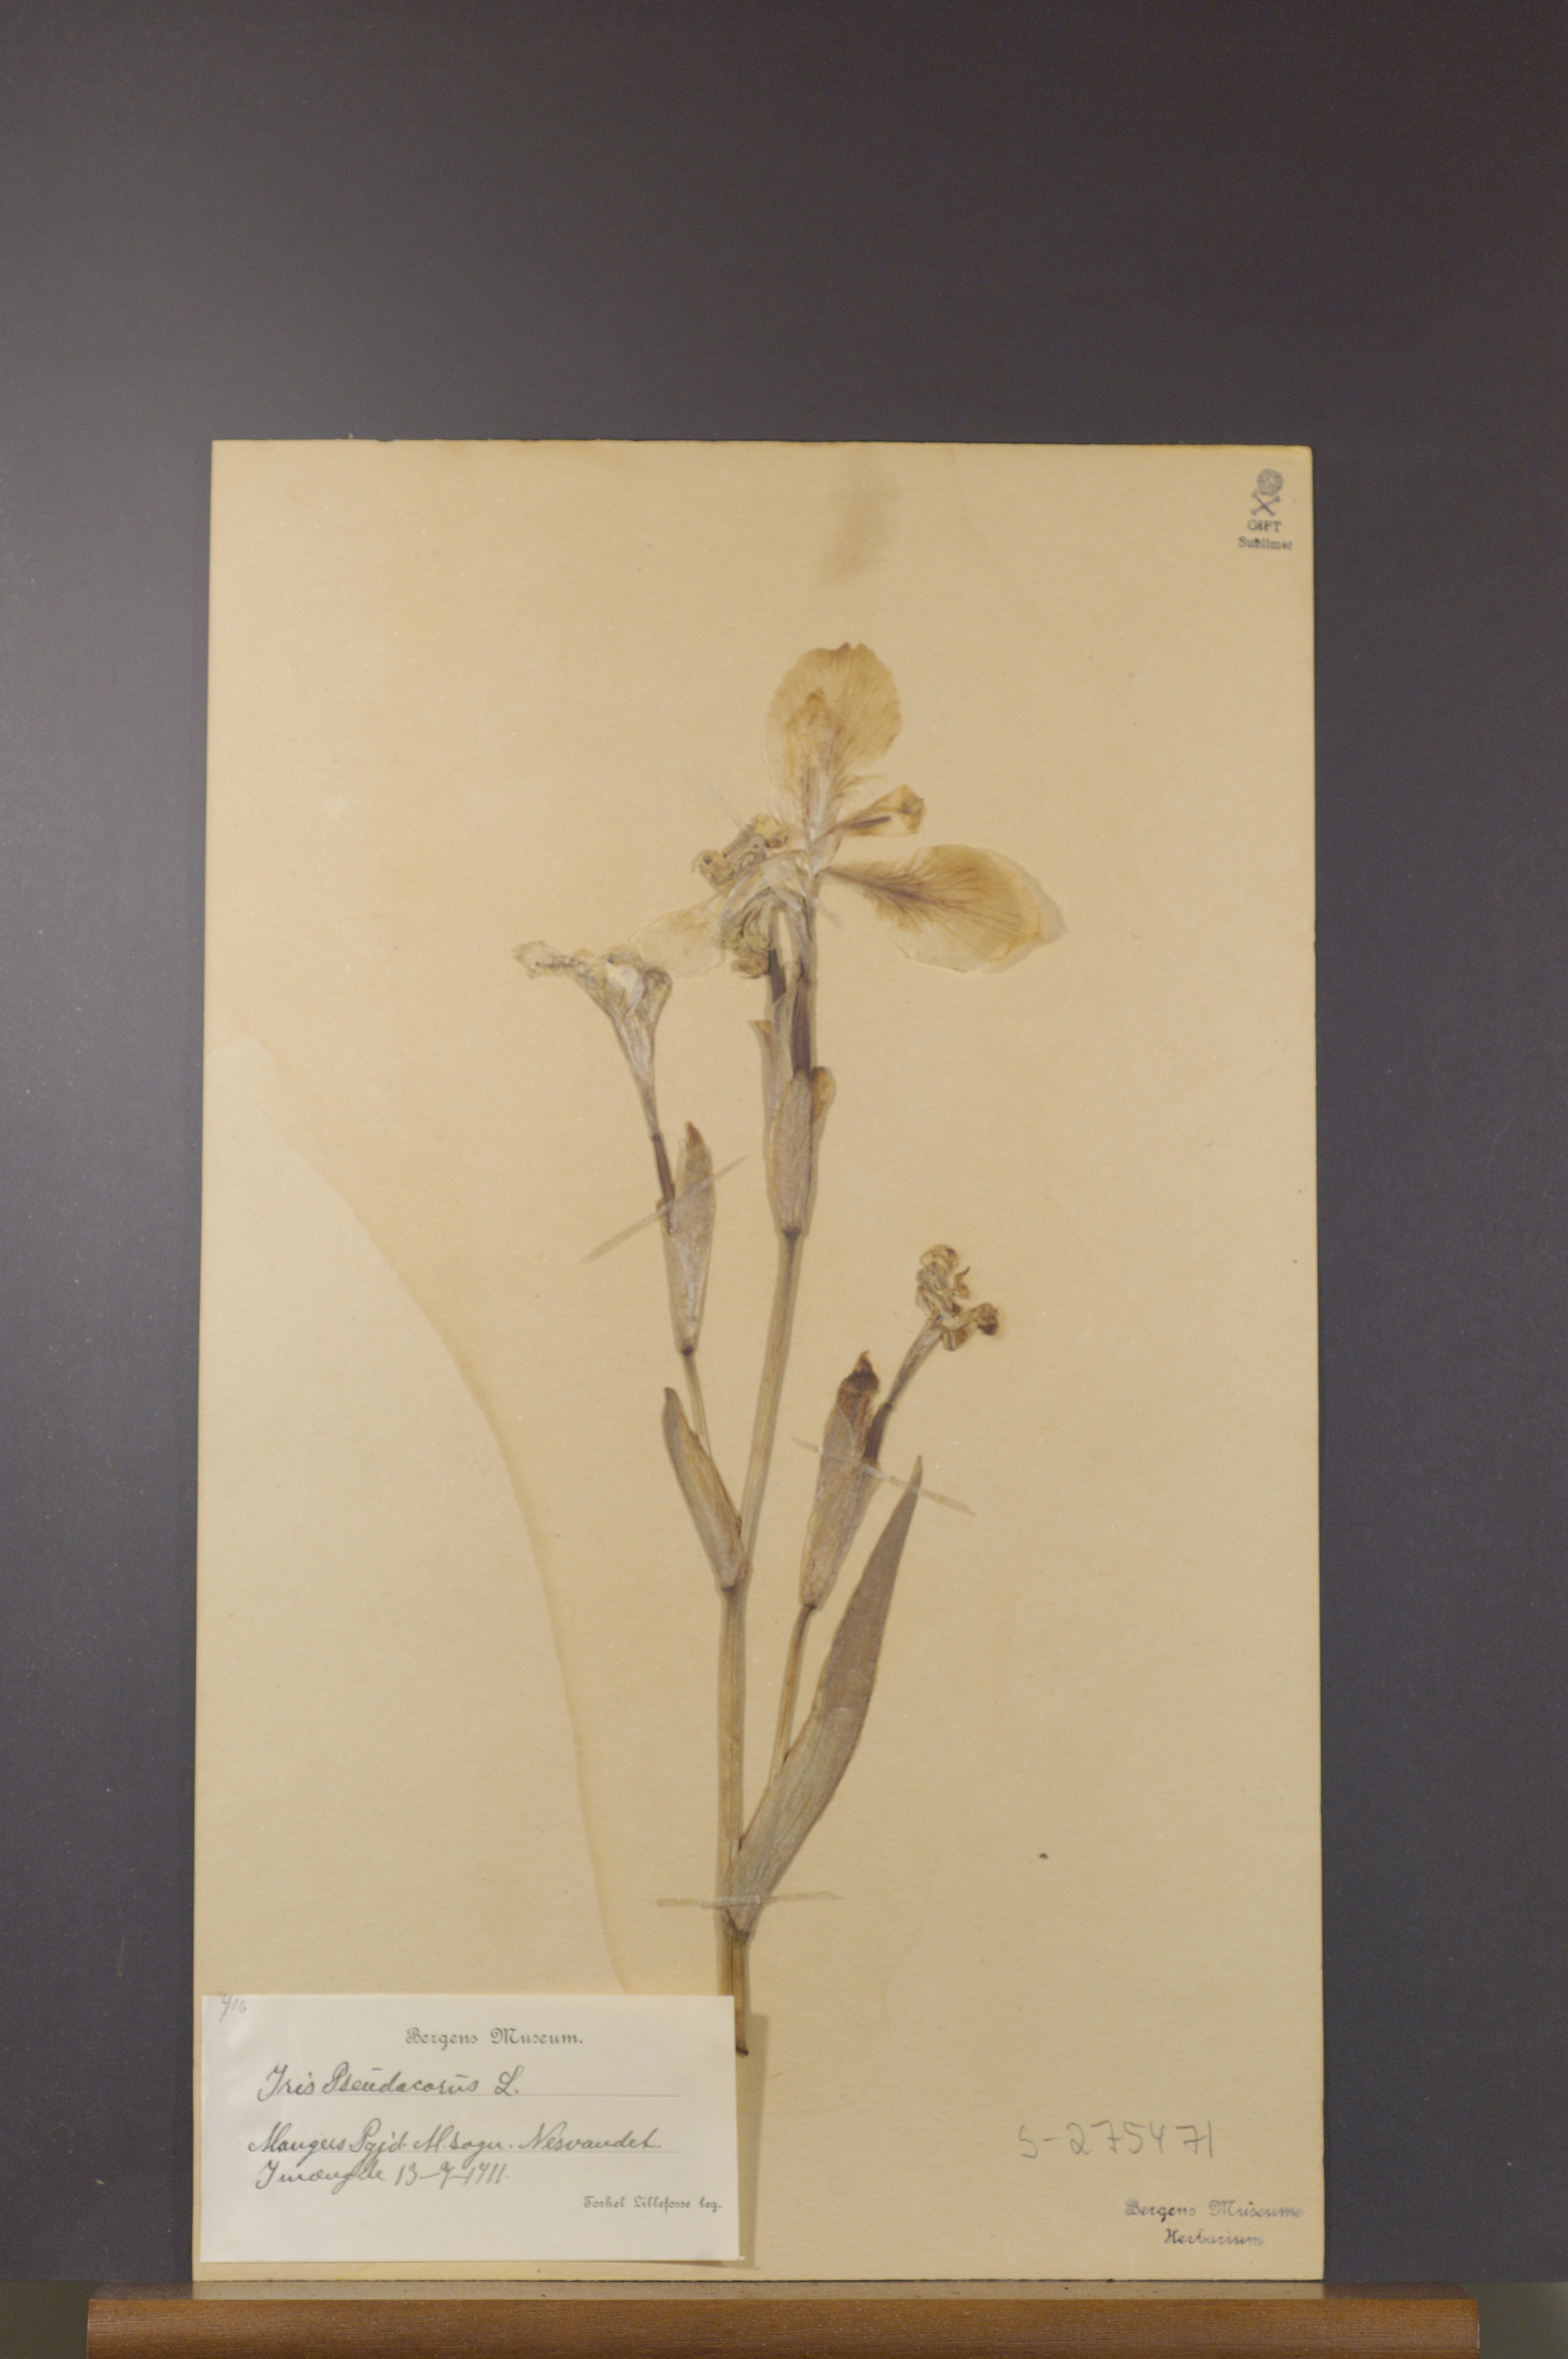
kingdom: Plantae
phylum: Tracheophyta
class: Liliopsida
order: Asparagales
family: Iridaceae
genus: Iris
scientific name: Iris pseudacorus
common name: Yellow flag
